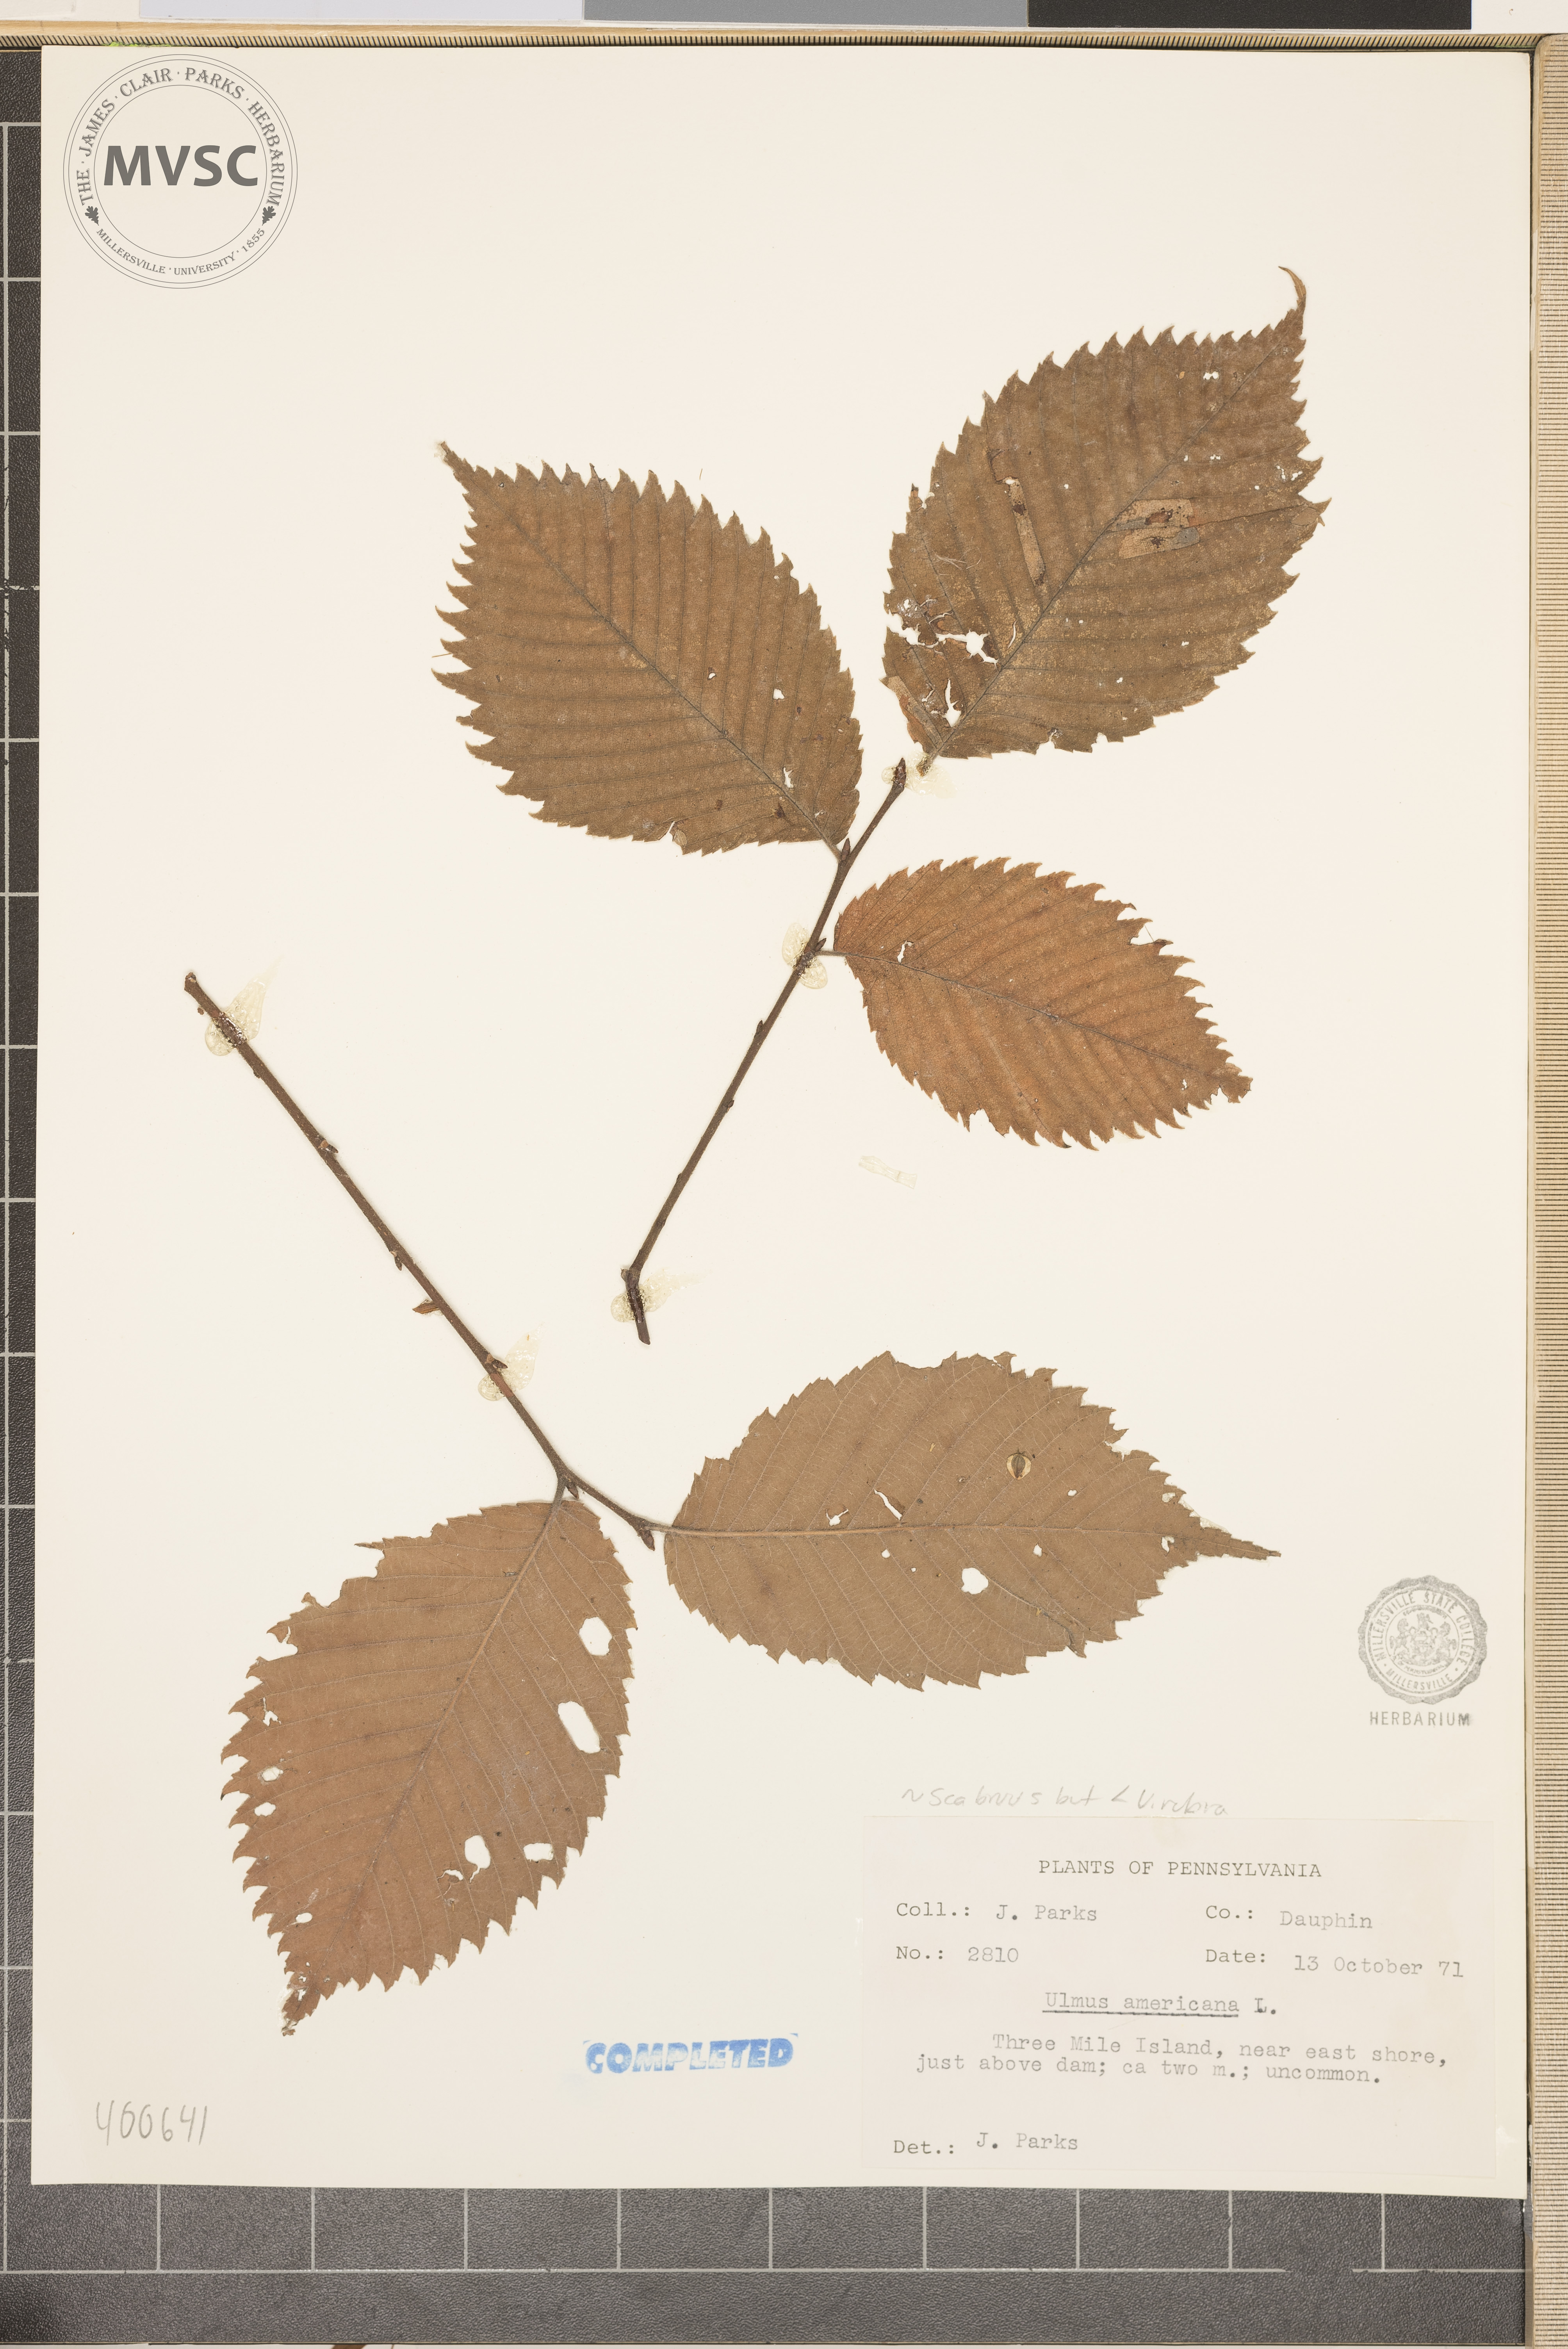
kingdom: Plantae
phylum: Tracheophyta
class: Magnoliopsida
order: Rosales
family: Ulmaceae
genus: Ulmus
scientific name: Ulmus americana
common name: American elm
